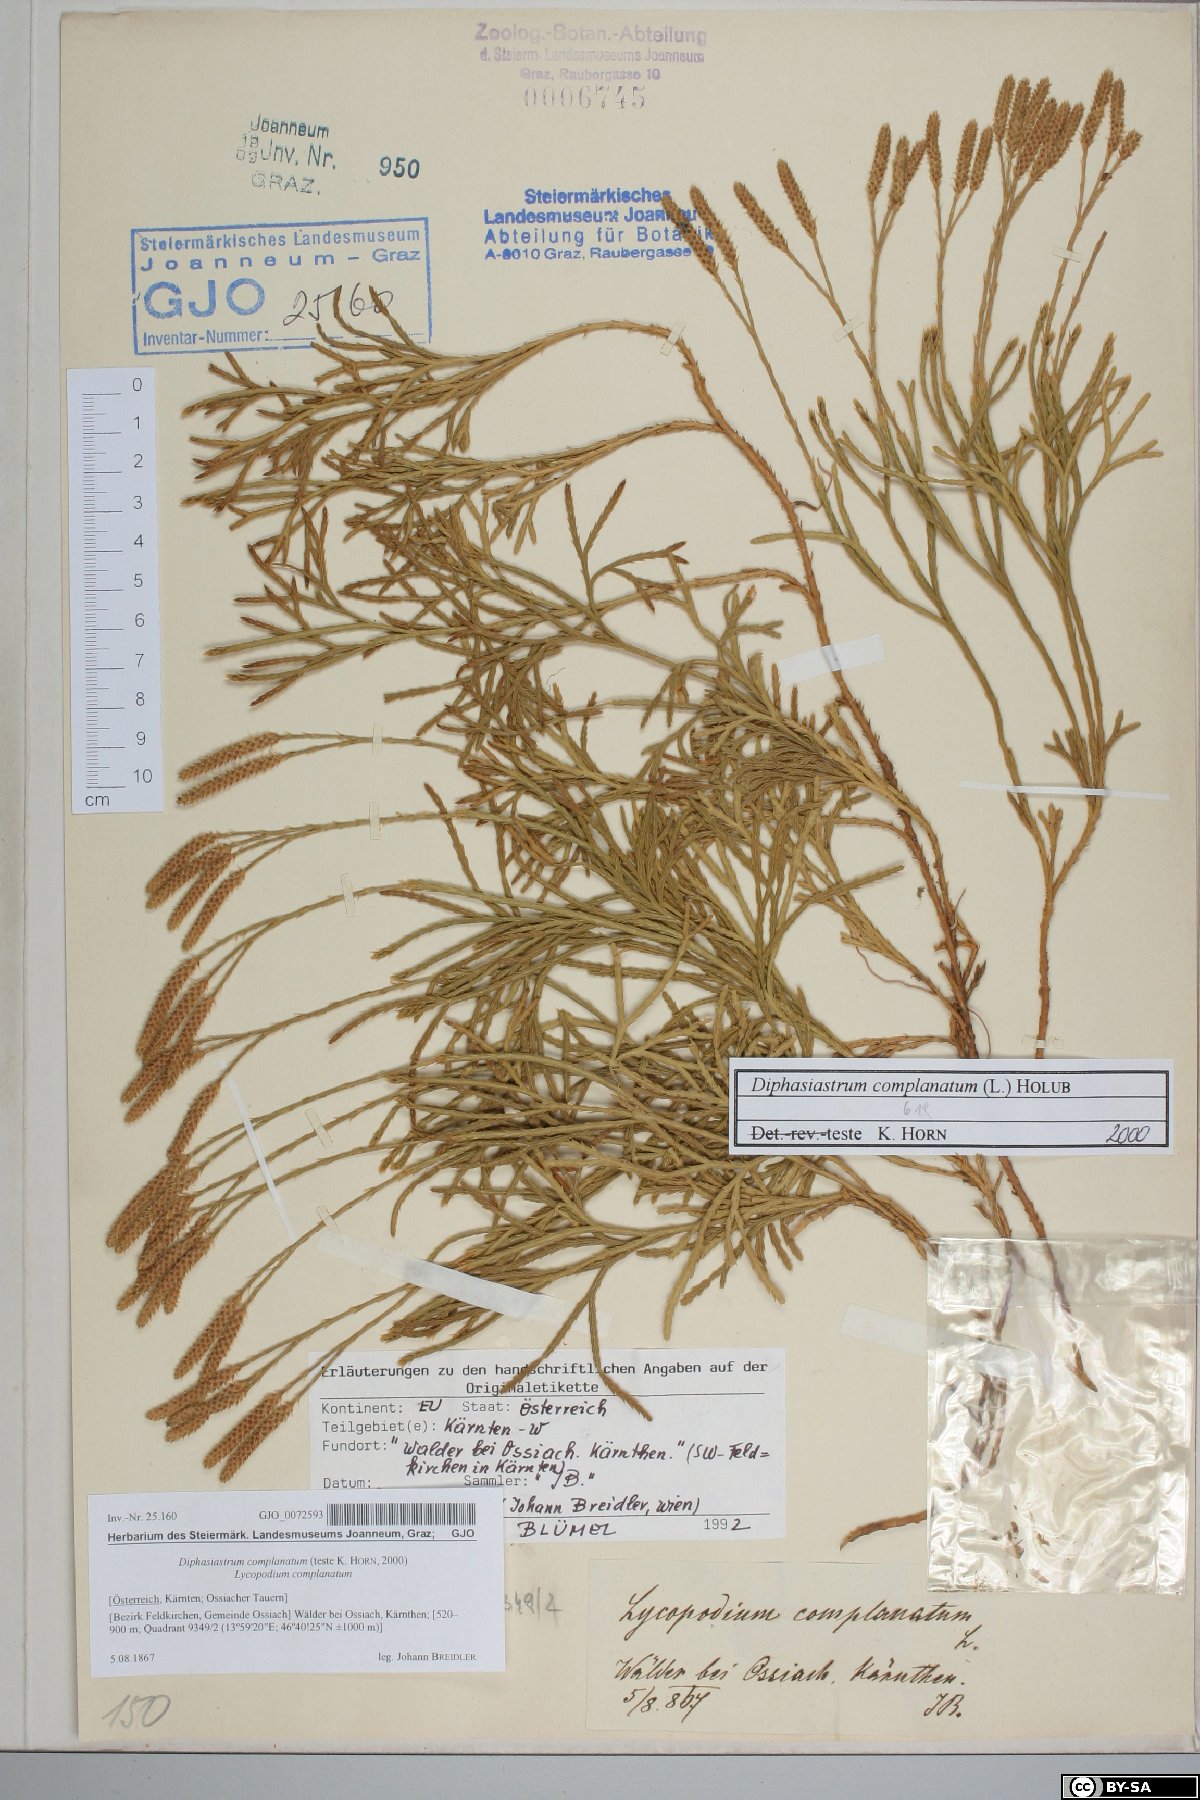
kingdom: Plantae
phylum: Tracheophyta
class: Lycopodiopsida
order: Lycopodiales
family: Lycopodiaceae
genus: Diphasiastrum
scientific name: Diphasiastrum complanatum
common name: Northern running-pine
